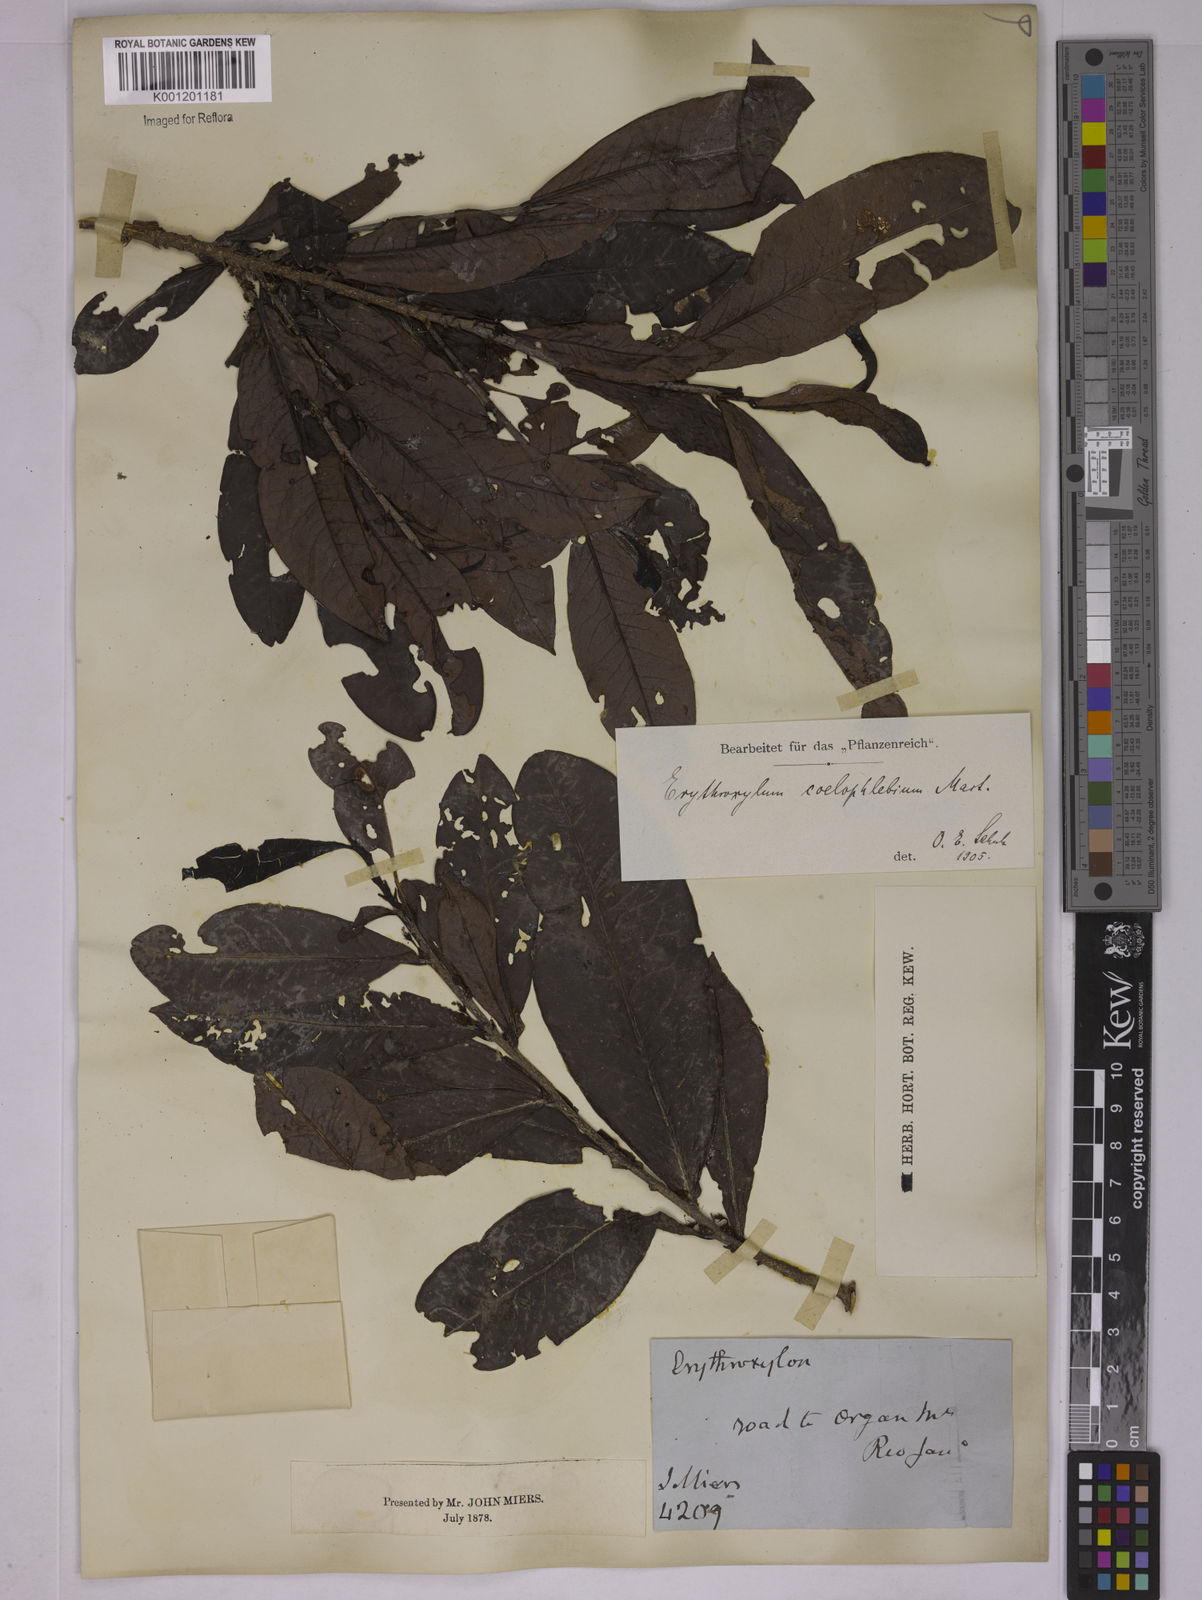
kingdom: Plantae
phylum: Tracheophyta
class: Magnoliopsida
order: Malpighiales
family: Erythroxylaceae
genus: Erythroxylum
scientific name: Erythroxylum coelophlebium
